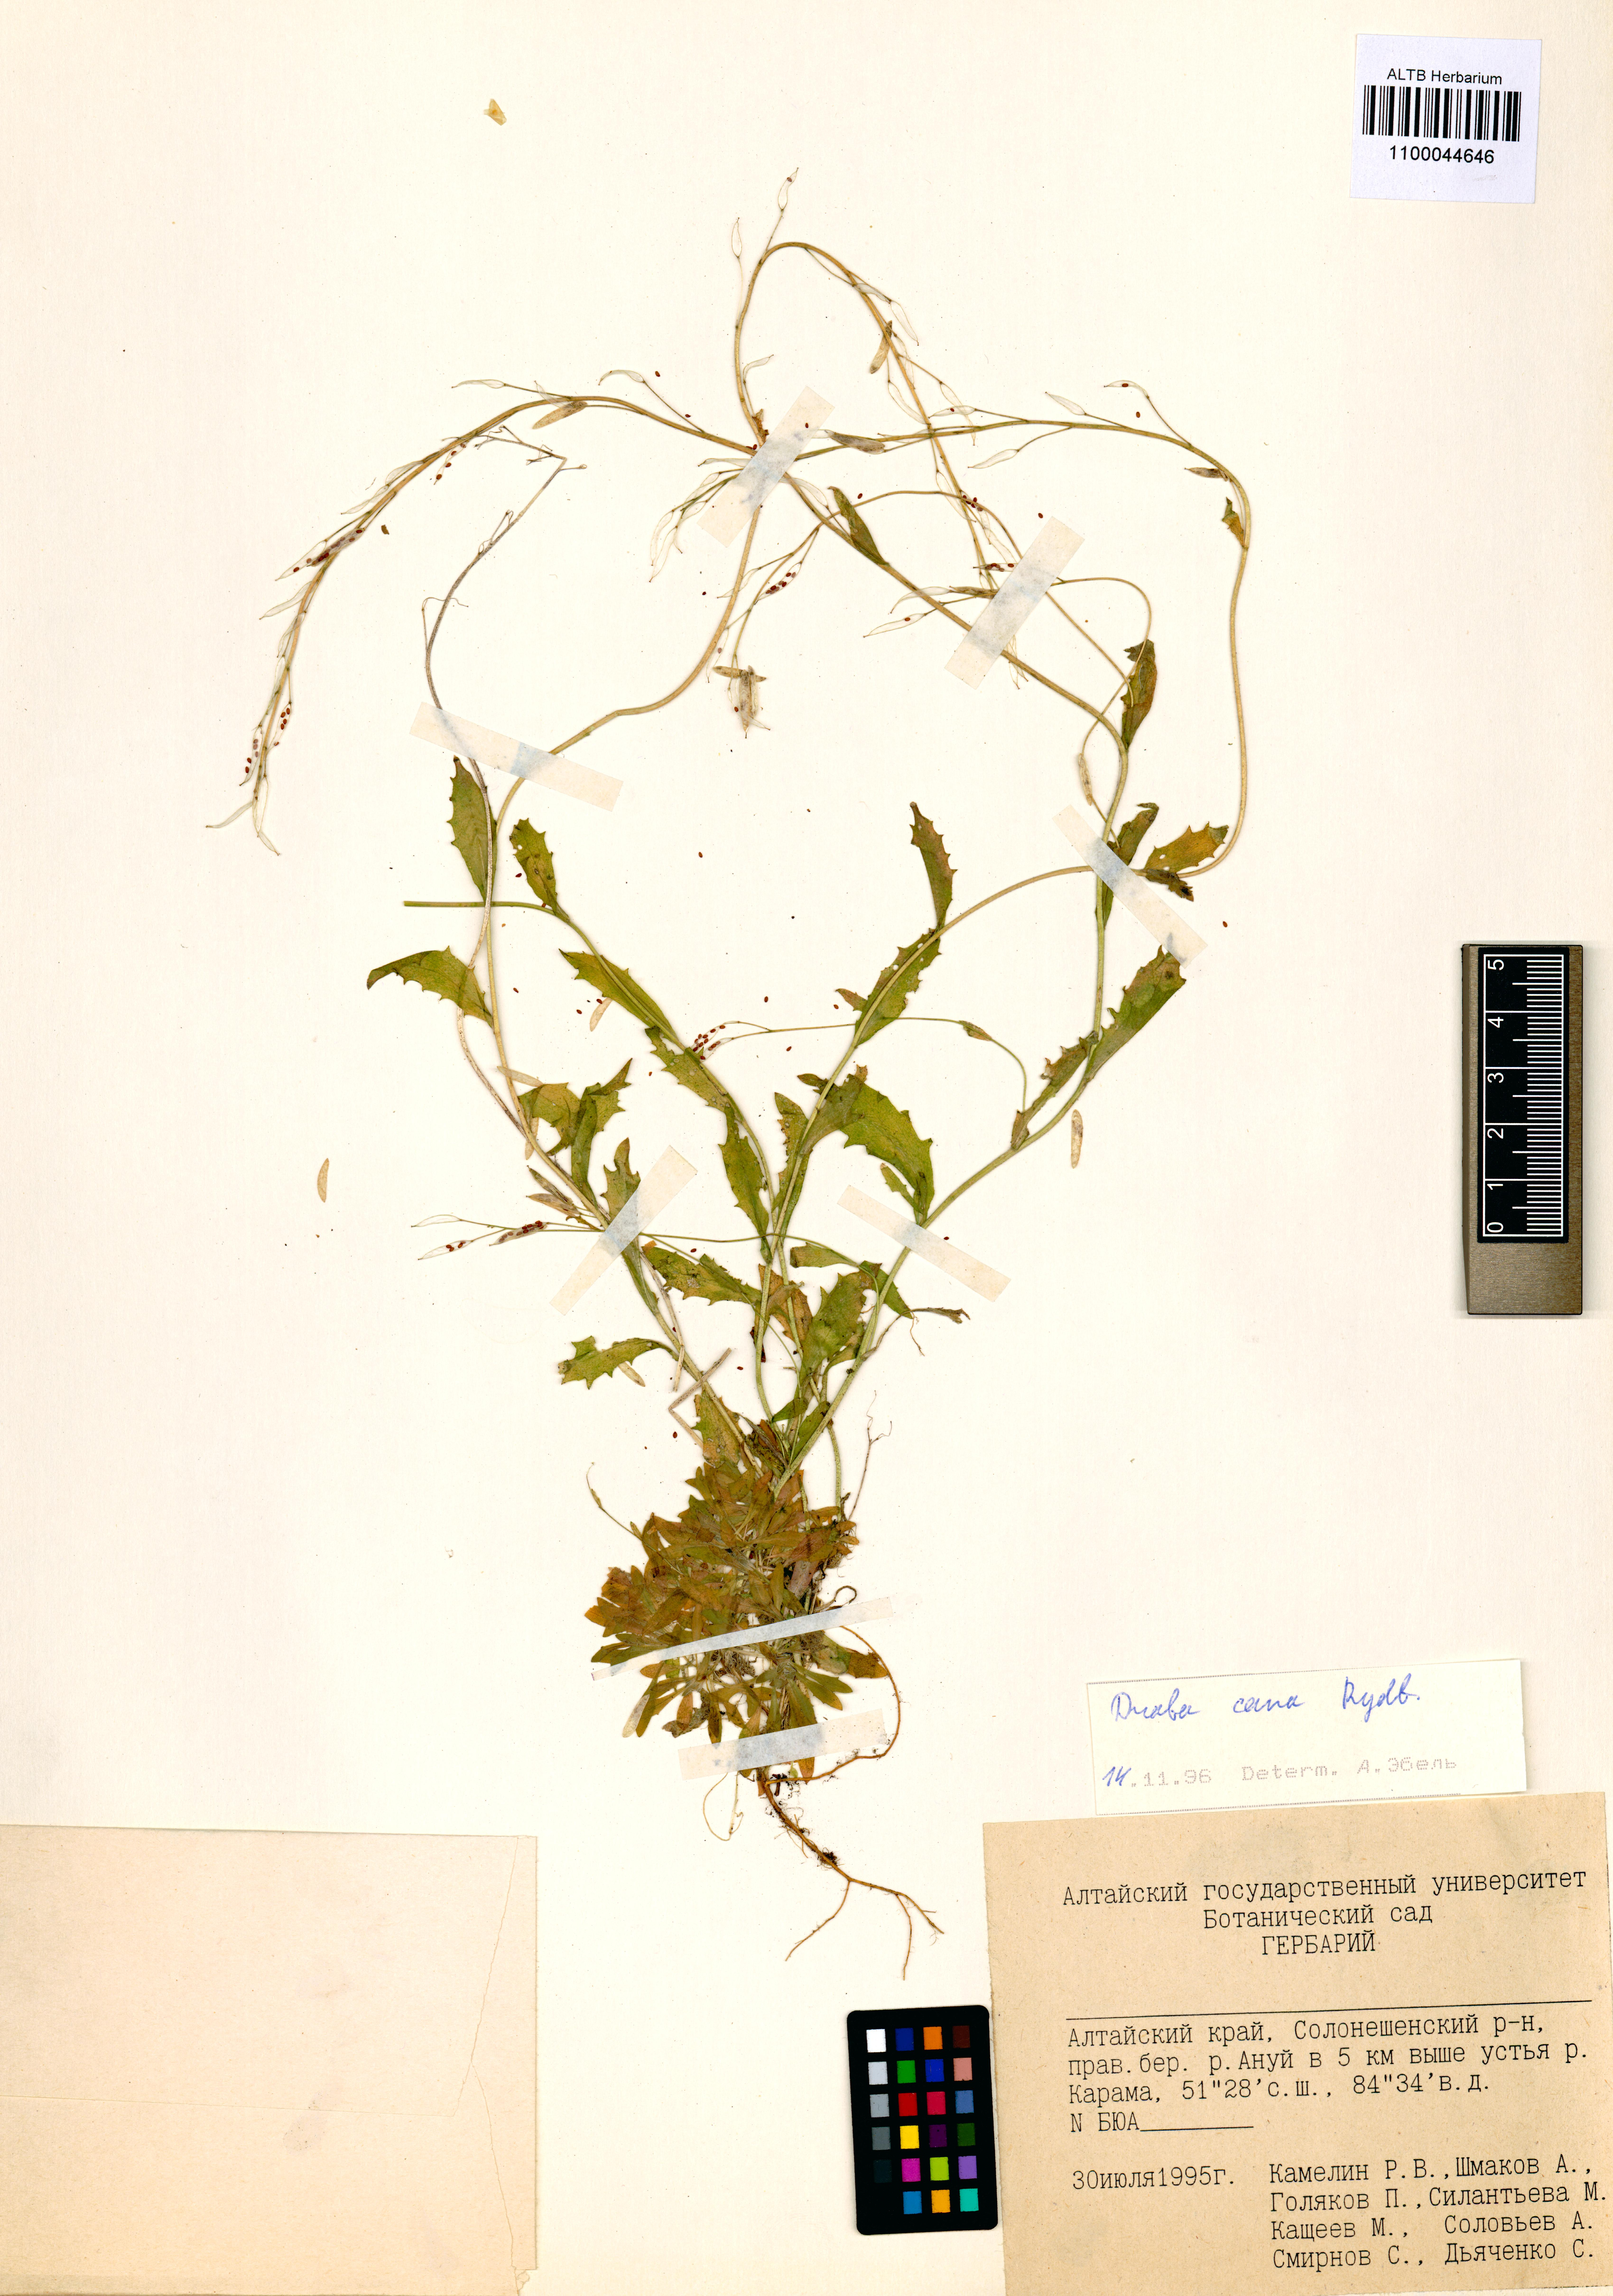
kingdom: Plantae
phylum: Tracheophyta
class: Magnoliopsida
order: Brassicales
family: Brassicaceae
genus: Draba
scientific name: Draba cana
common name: Hoary draba
